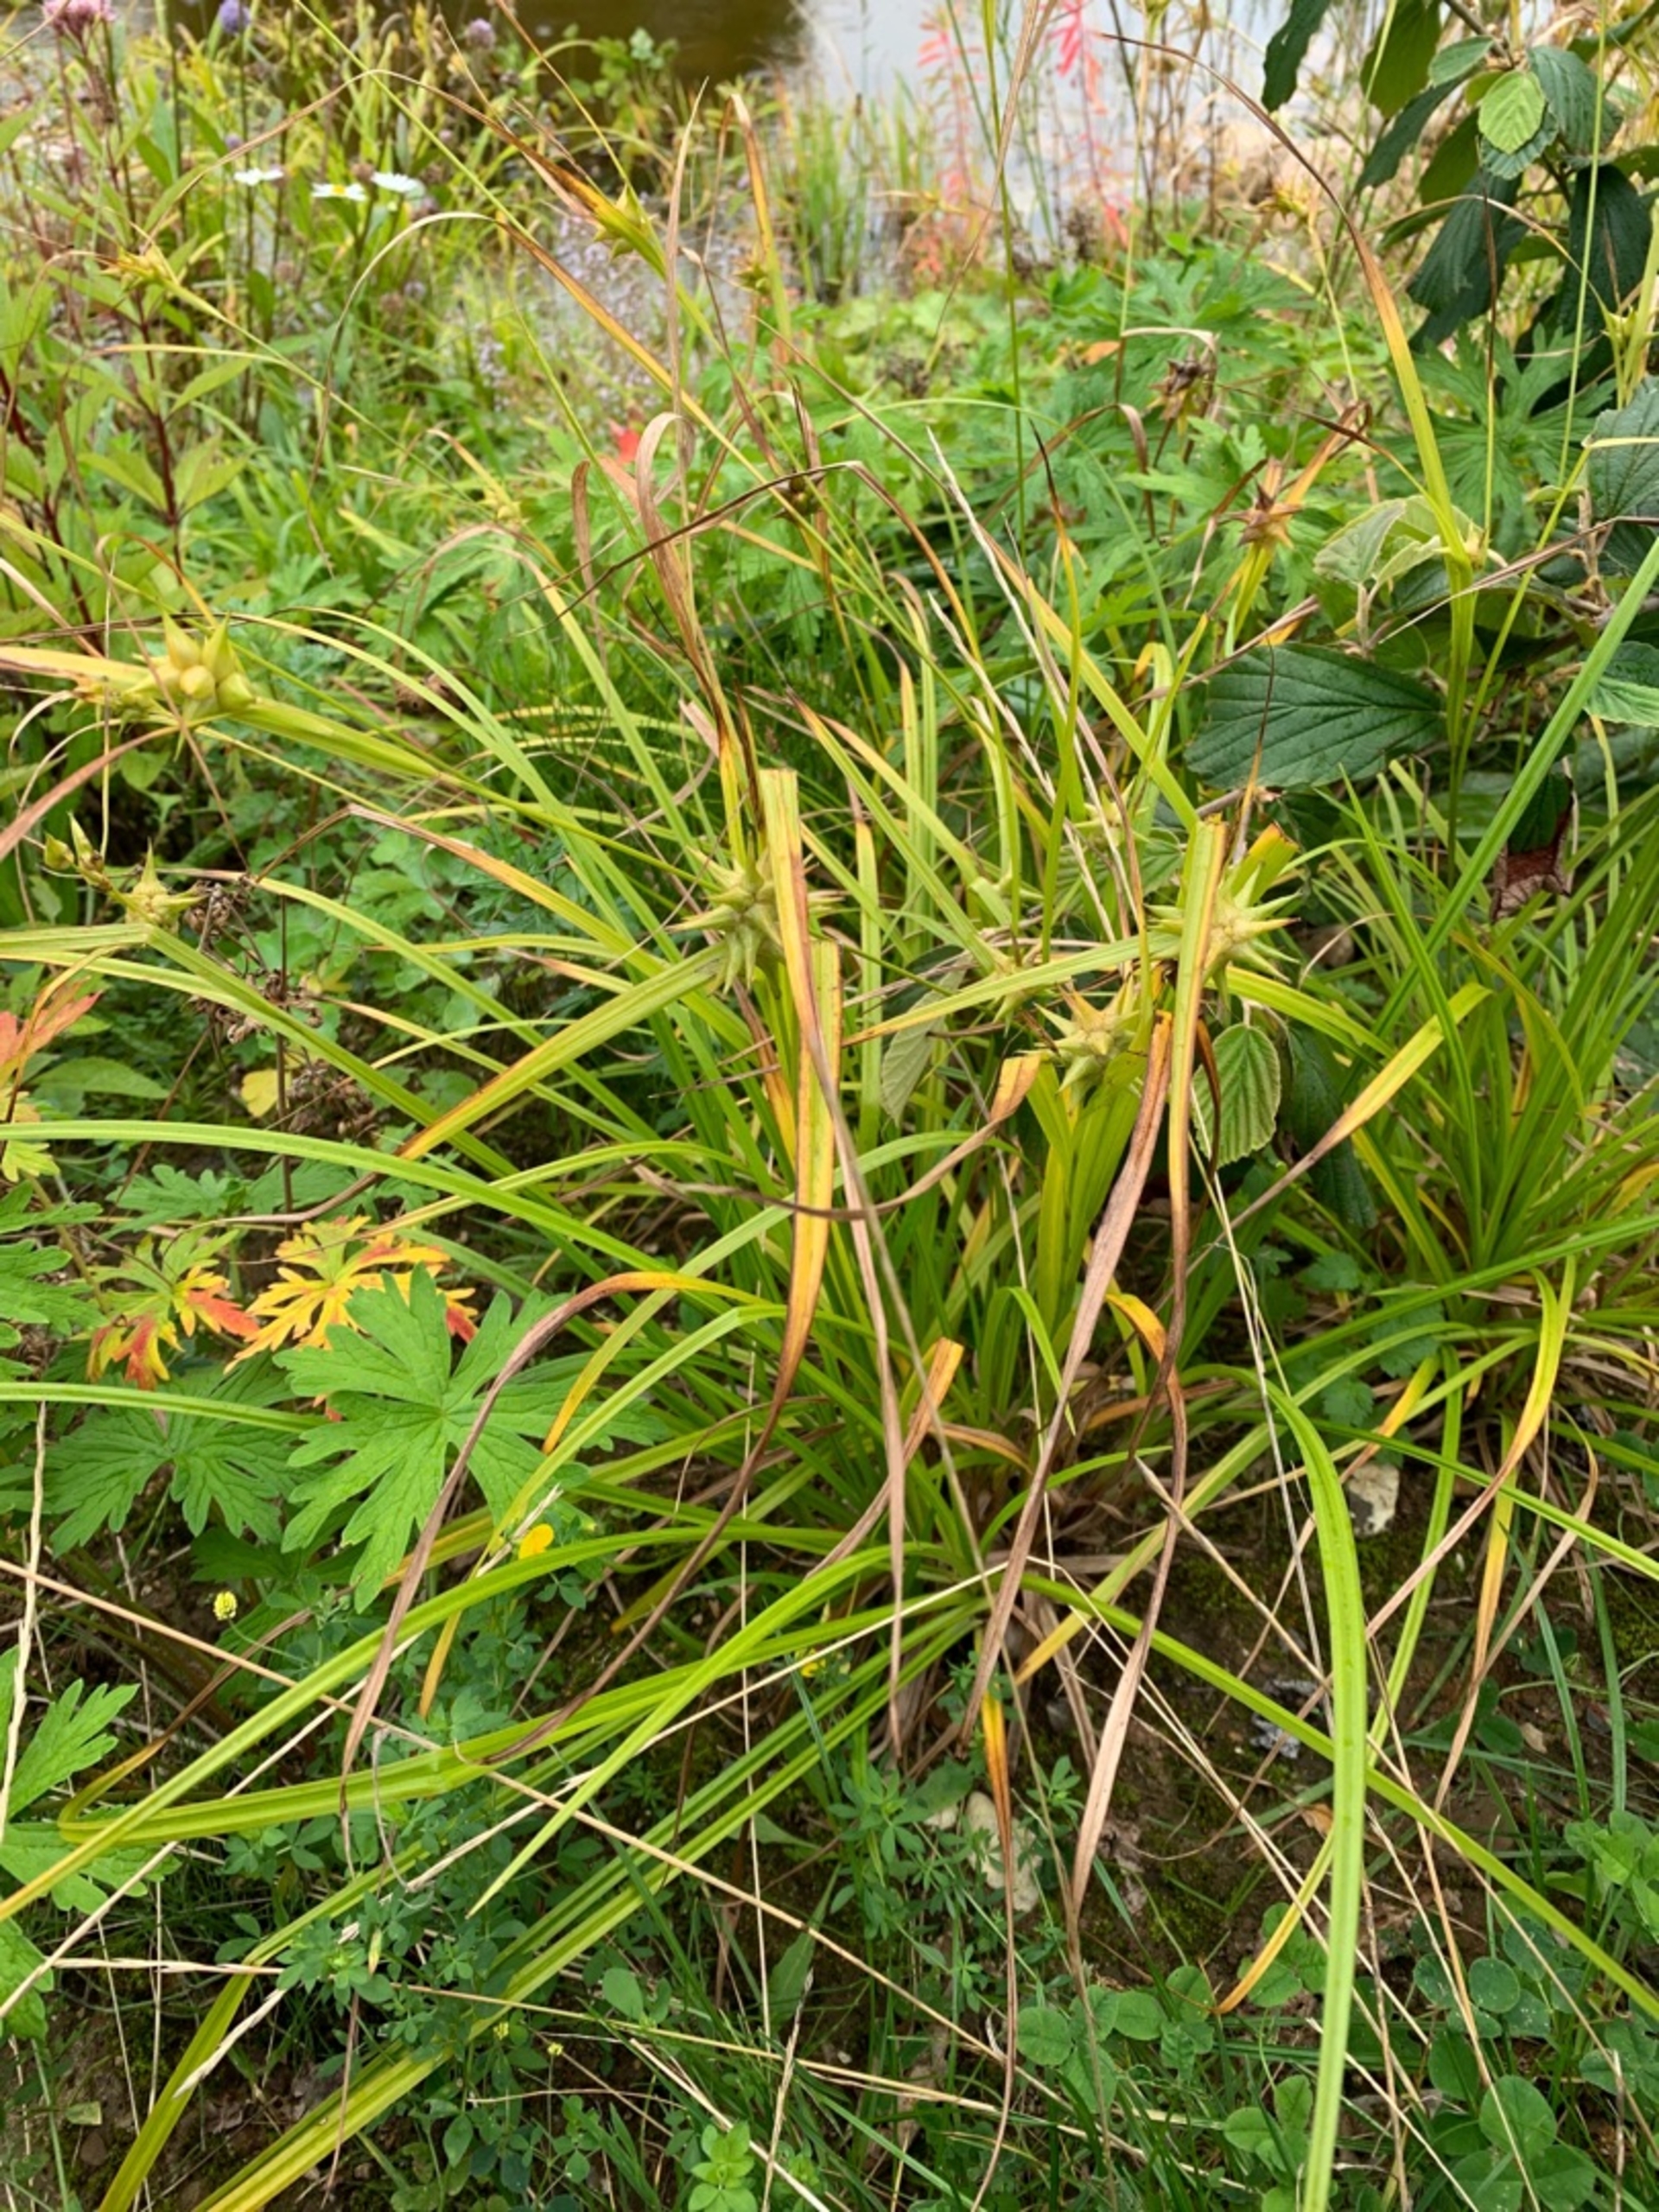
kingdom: Plantae
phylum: Tracheophyta
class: Liliopsida
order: Poales
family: Cyperaceae
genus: Carex
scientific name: Carex grayi
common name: Morgenstjerne-star
